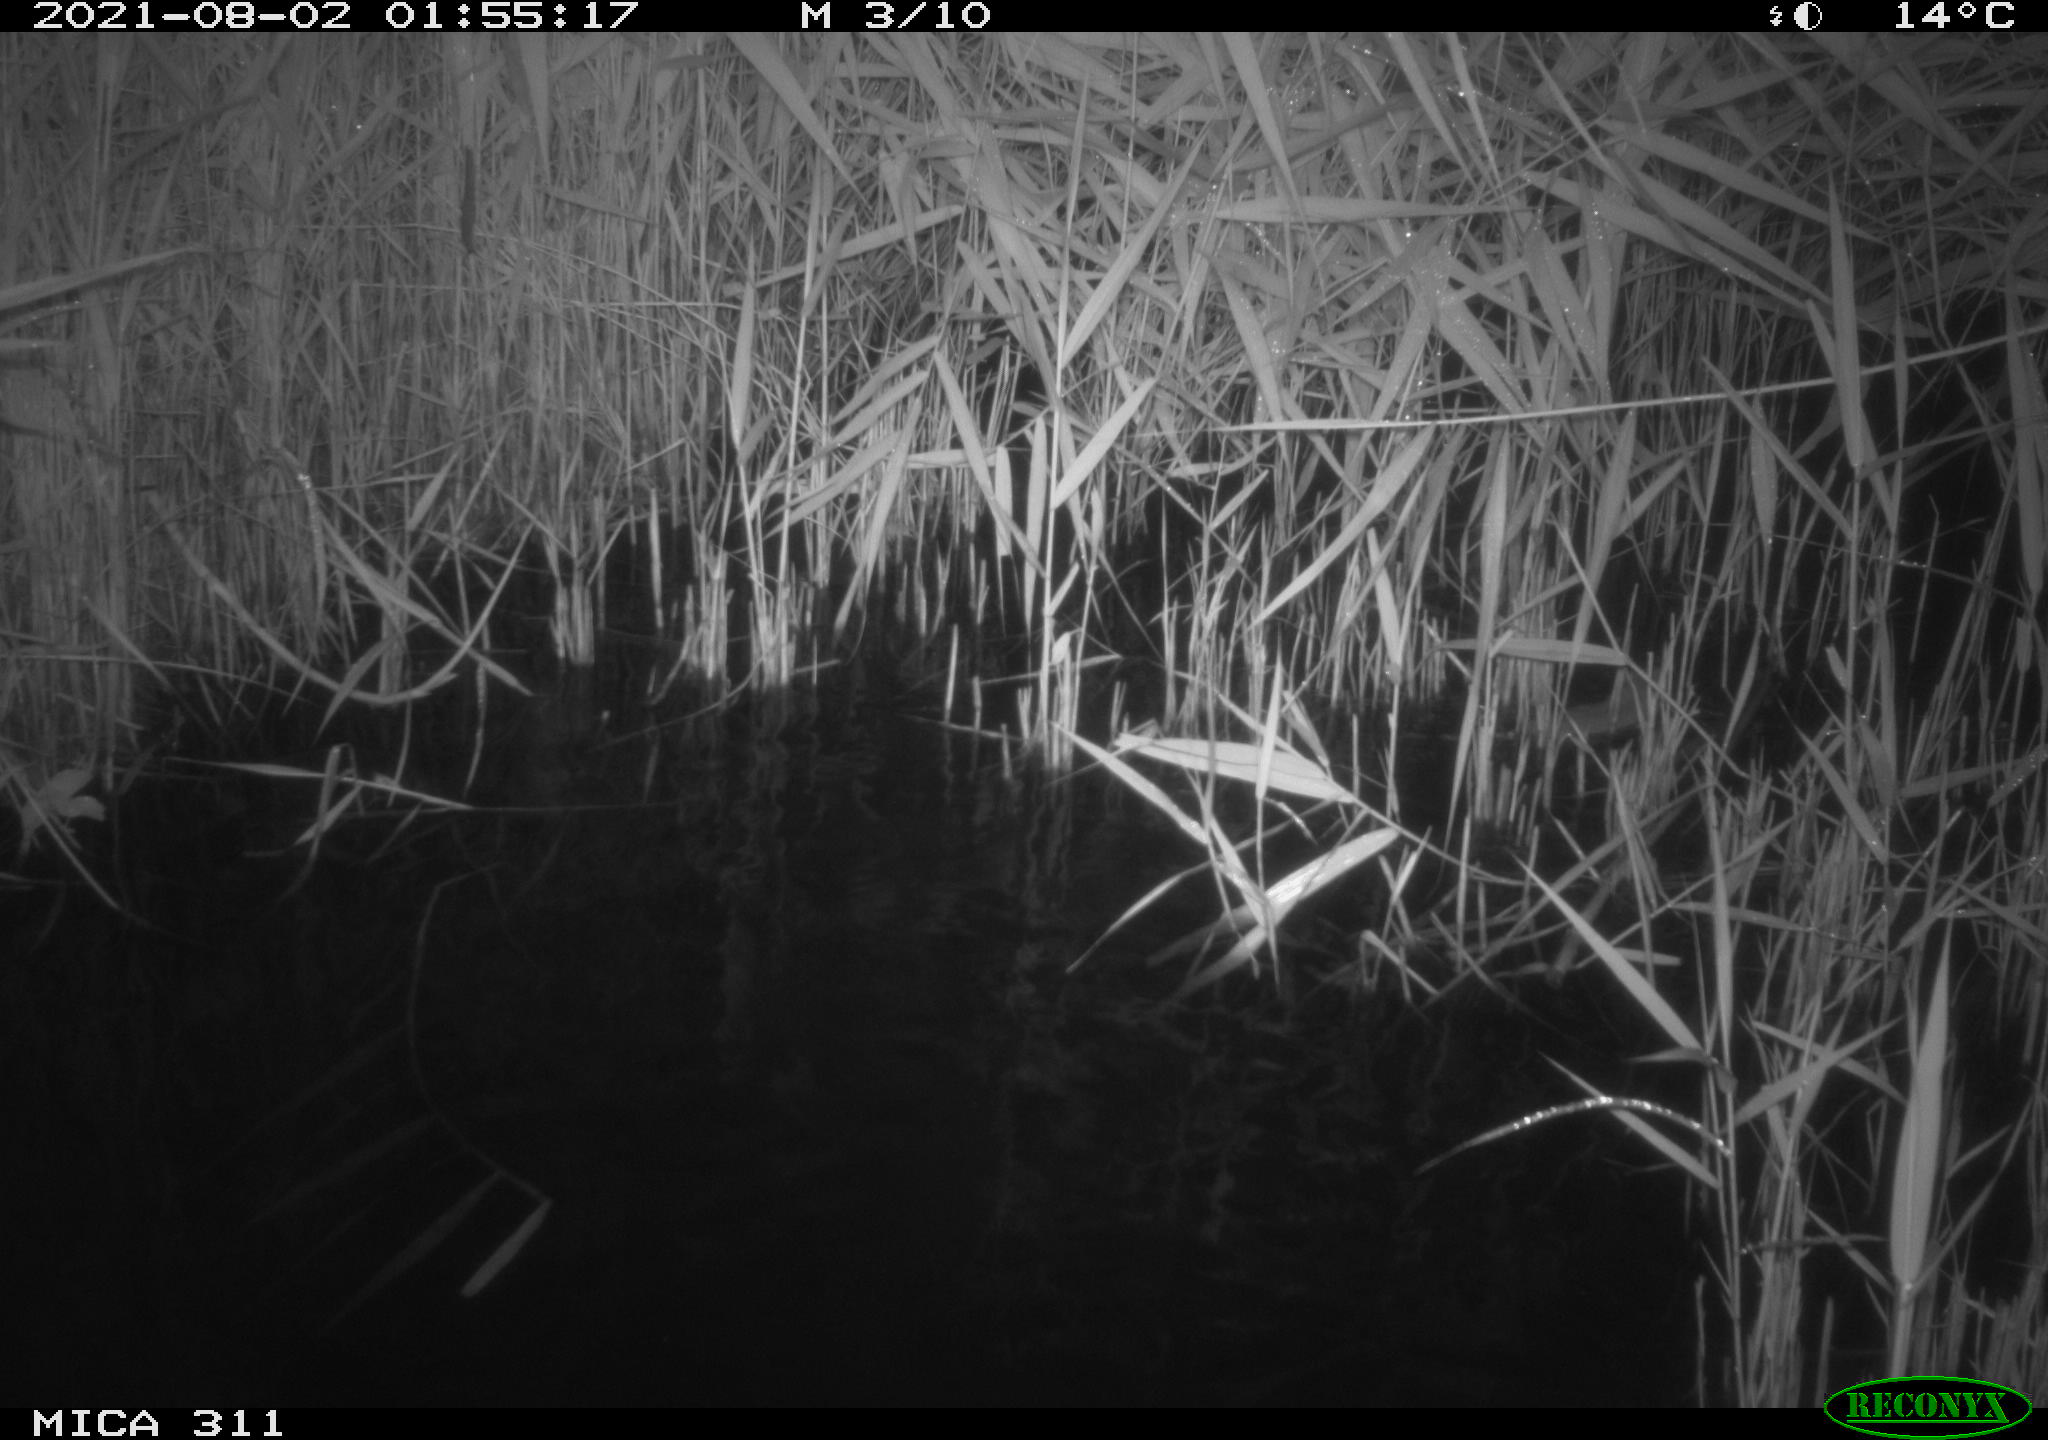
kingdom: Animalia
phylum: Chordata
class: Mammalia
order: Rodentia
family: Muridae
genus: Rattus
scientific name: Rattus norvegicus
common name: Brown rat
